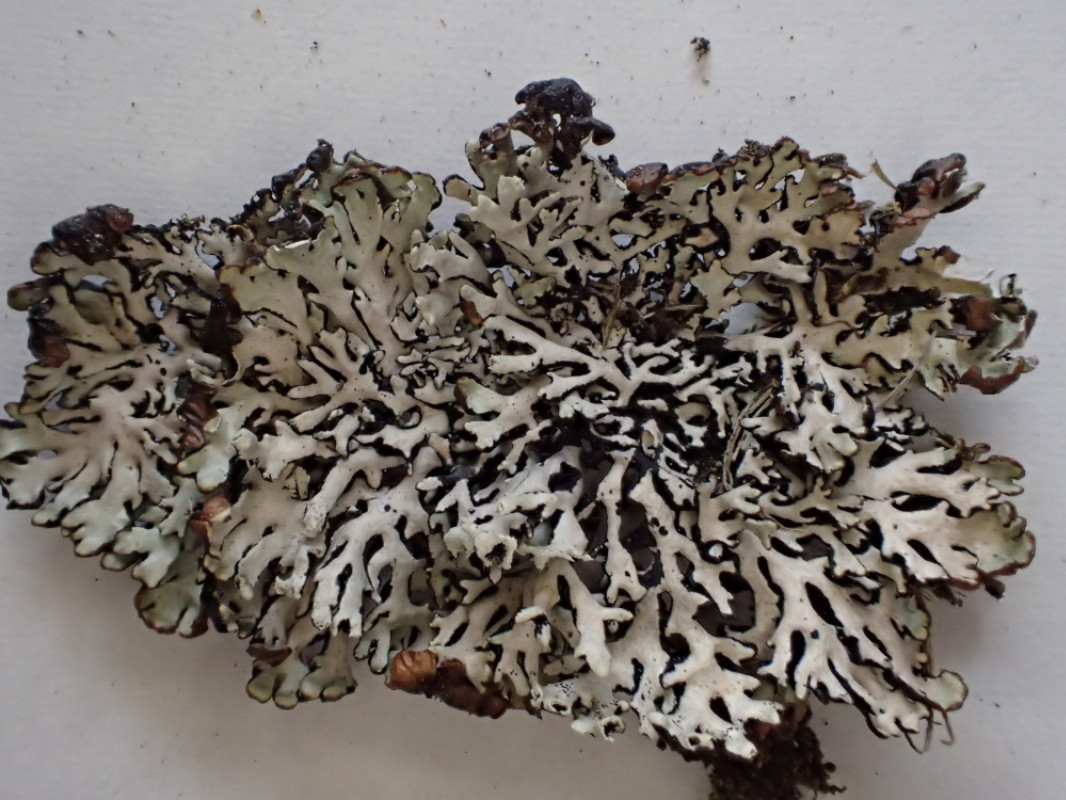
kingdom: Fungi
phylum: Ascomycota
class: Lecanoromycetes
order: Lecanorales
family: Parmeliaceae
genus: Hypogymnia
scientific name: Hypogymnia physodes
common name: almindelig kvistlav
